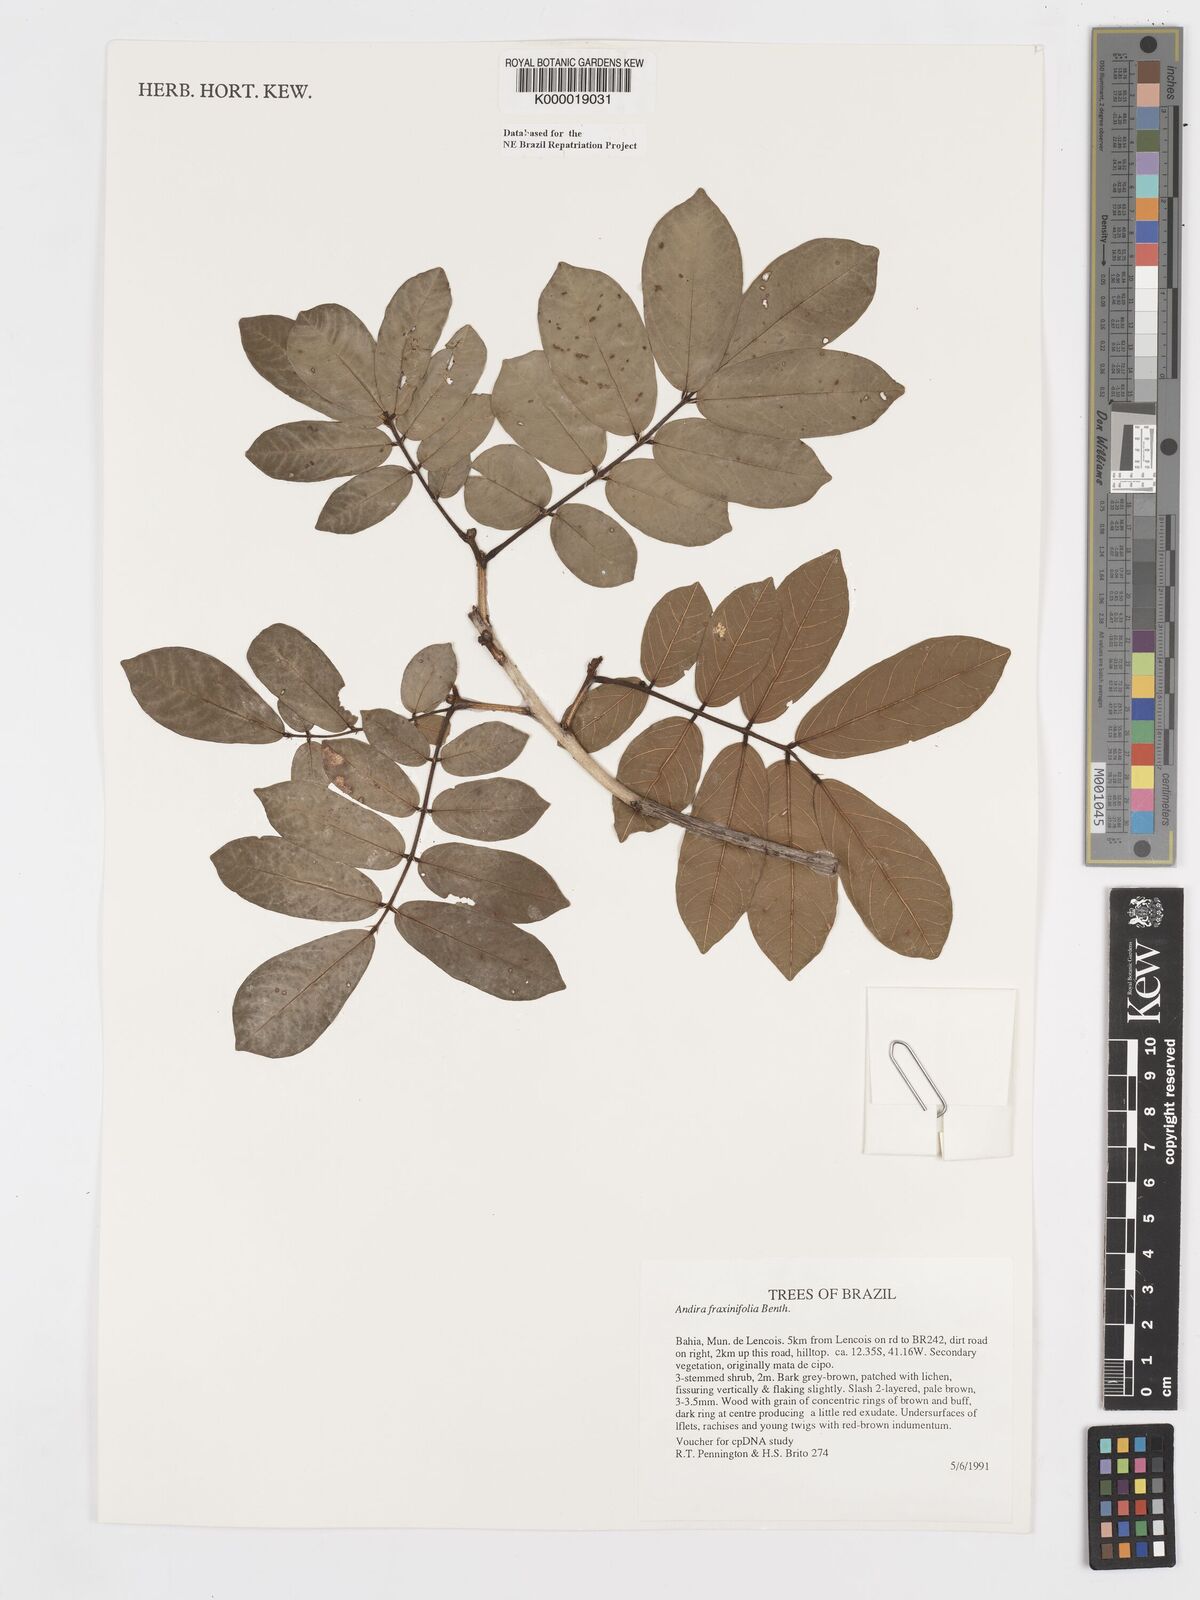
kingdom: Plantae
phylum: Tracheophyta
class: Magnoliopsida
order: Fabales
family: Fabaceae
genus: Andira
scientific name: Andira fraxinifolia
